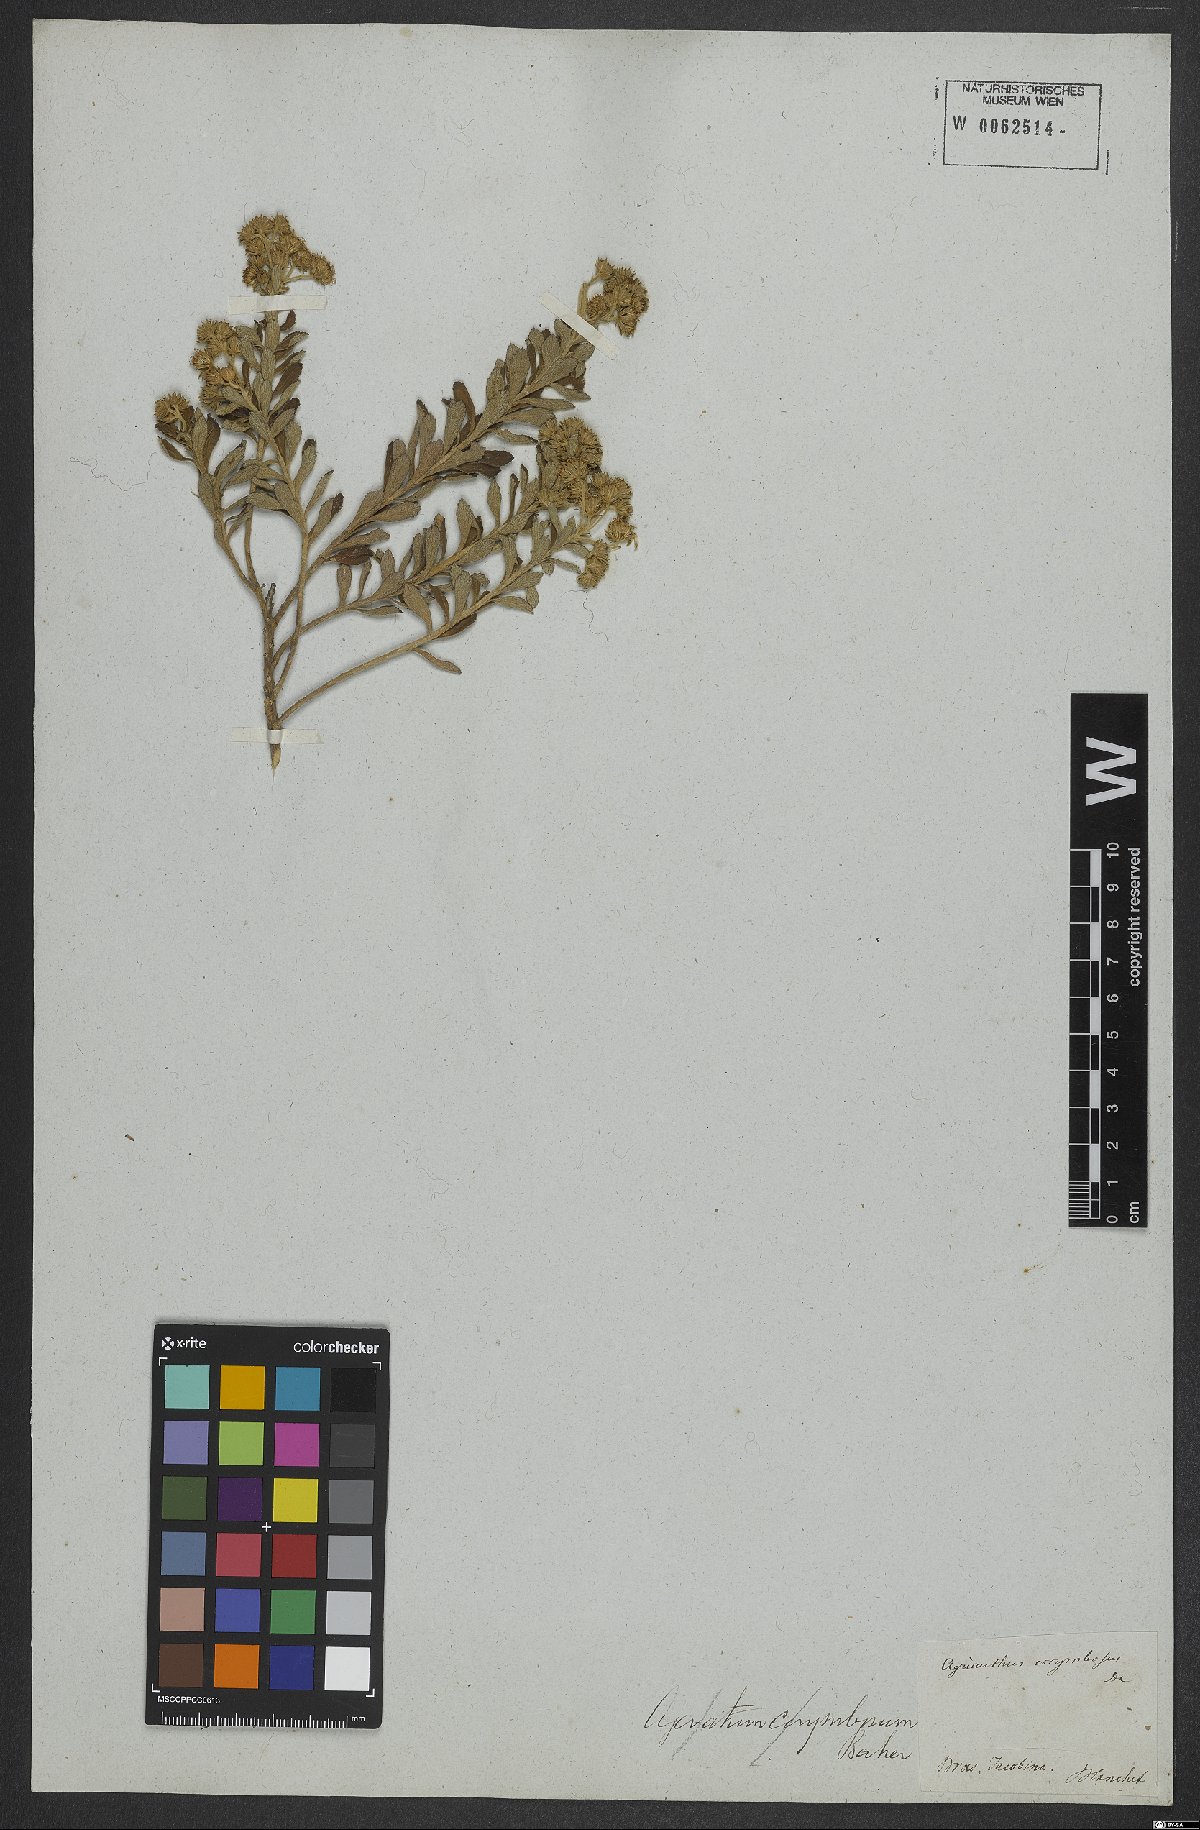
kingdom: Plantae
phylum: Tracheophyta
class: Magnoliopsida
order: Asterales
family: Asteraceae
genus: Stylotrichium
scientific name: Stylotrichium corymbosum
